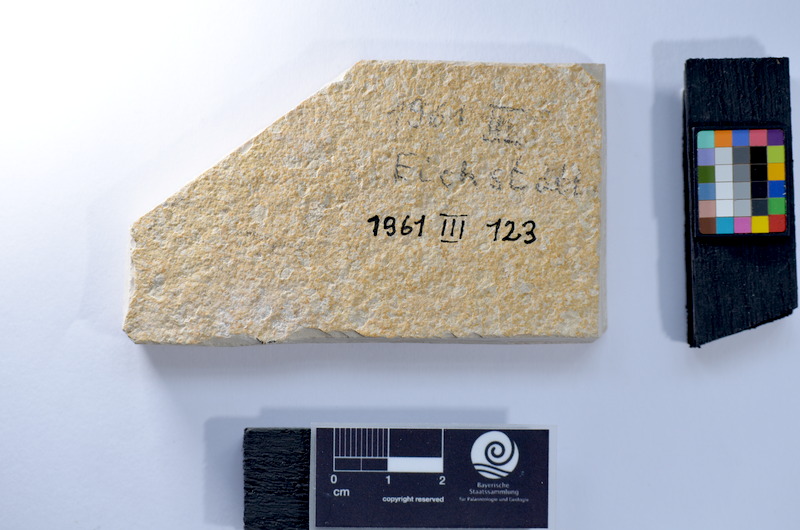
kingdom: Animalia
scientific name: Animalia
